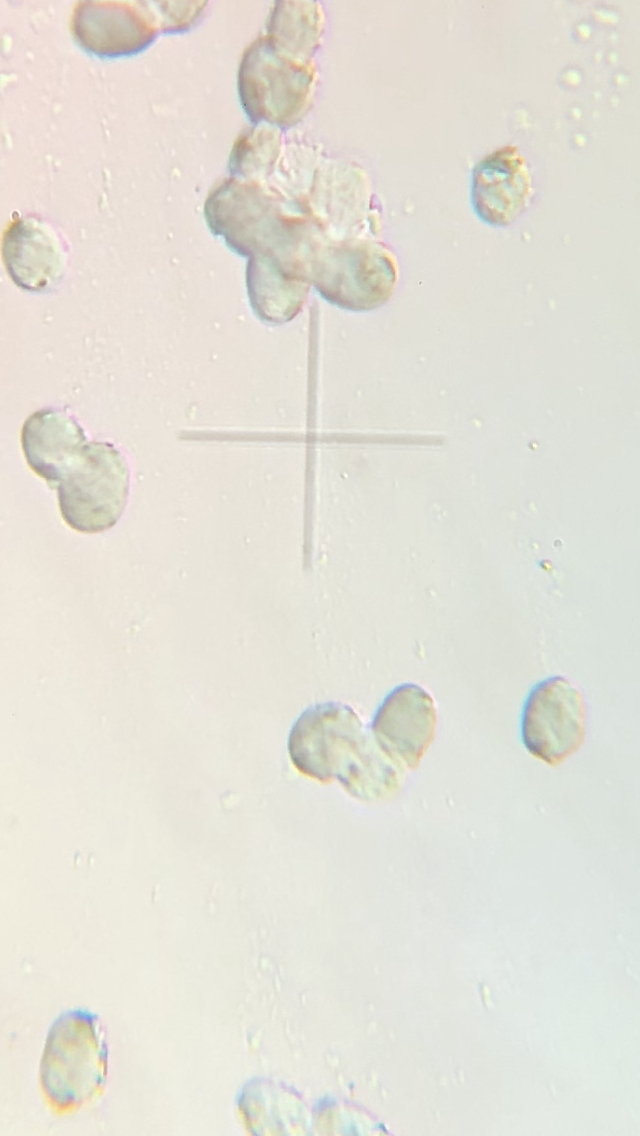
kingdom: Fungi
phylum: Basidiomycota
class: Agaricomycetes
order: Agaricales
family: Hygrophoraceae
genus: Hygrocybe
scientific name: Hygrocybe
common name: vokshat
